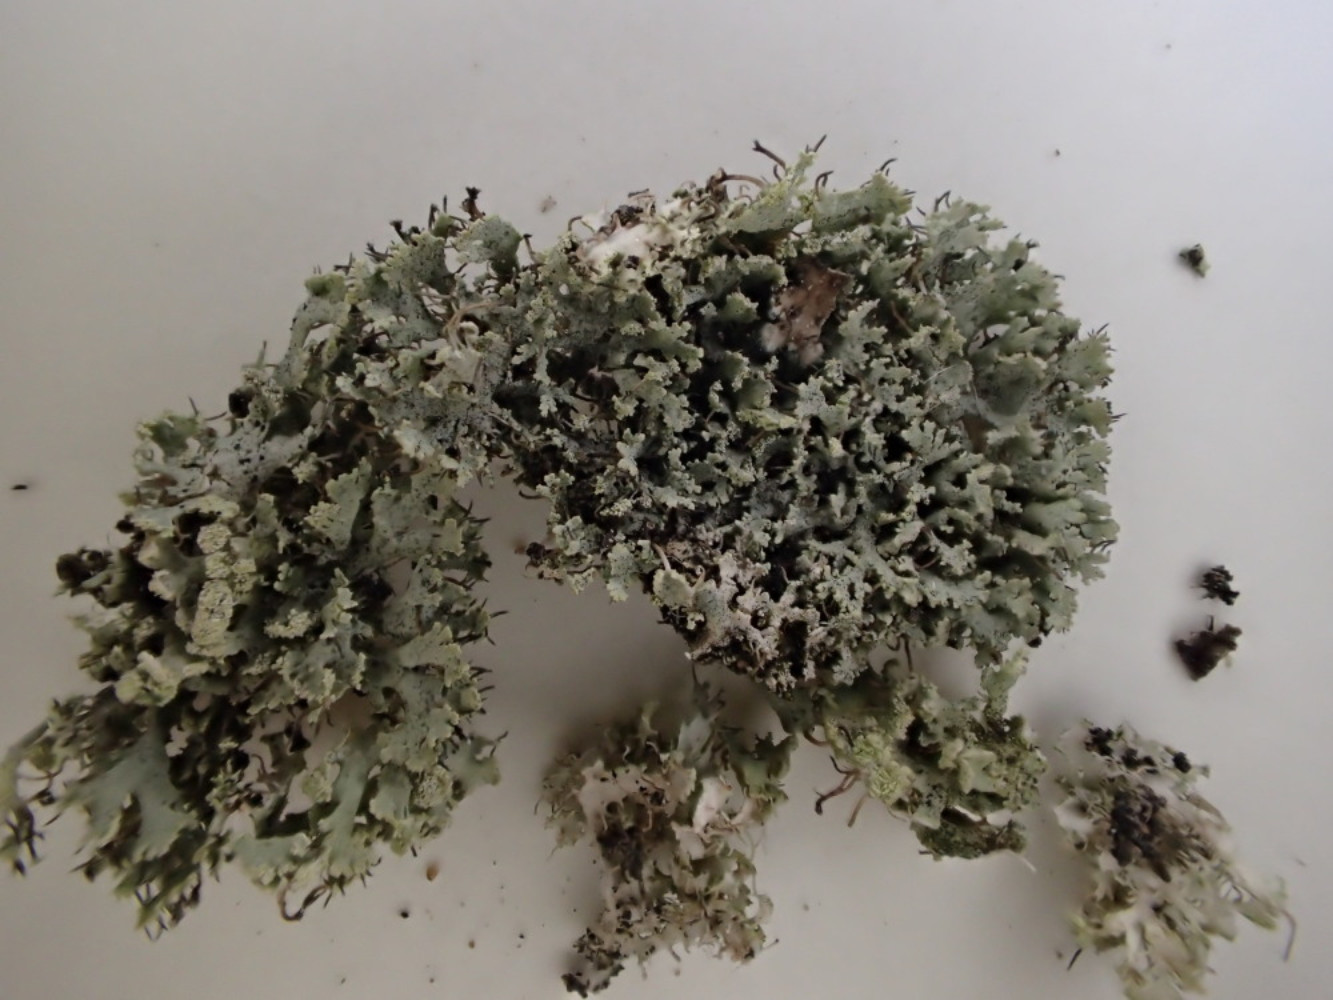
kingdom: Fungi
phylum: Ascomycota
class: Lecanoromycetes
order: Caliciales
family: Physciaceae
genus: Physcia
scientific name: Physcia tenella
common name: spæd rosetlav
